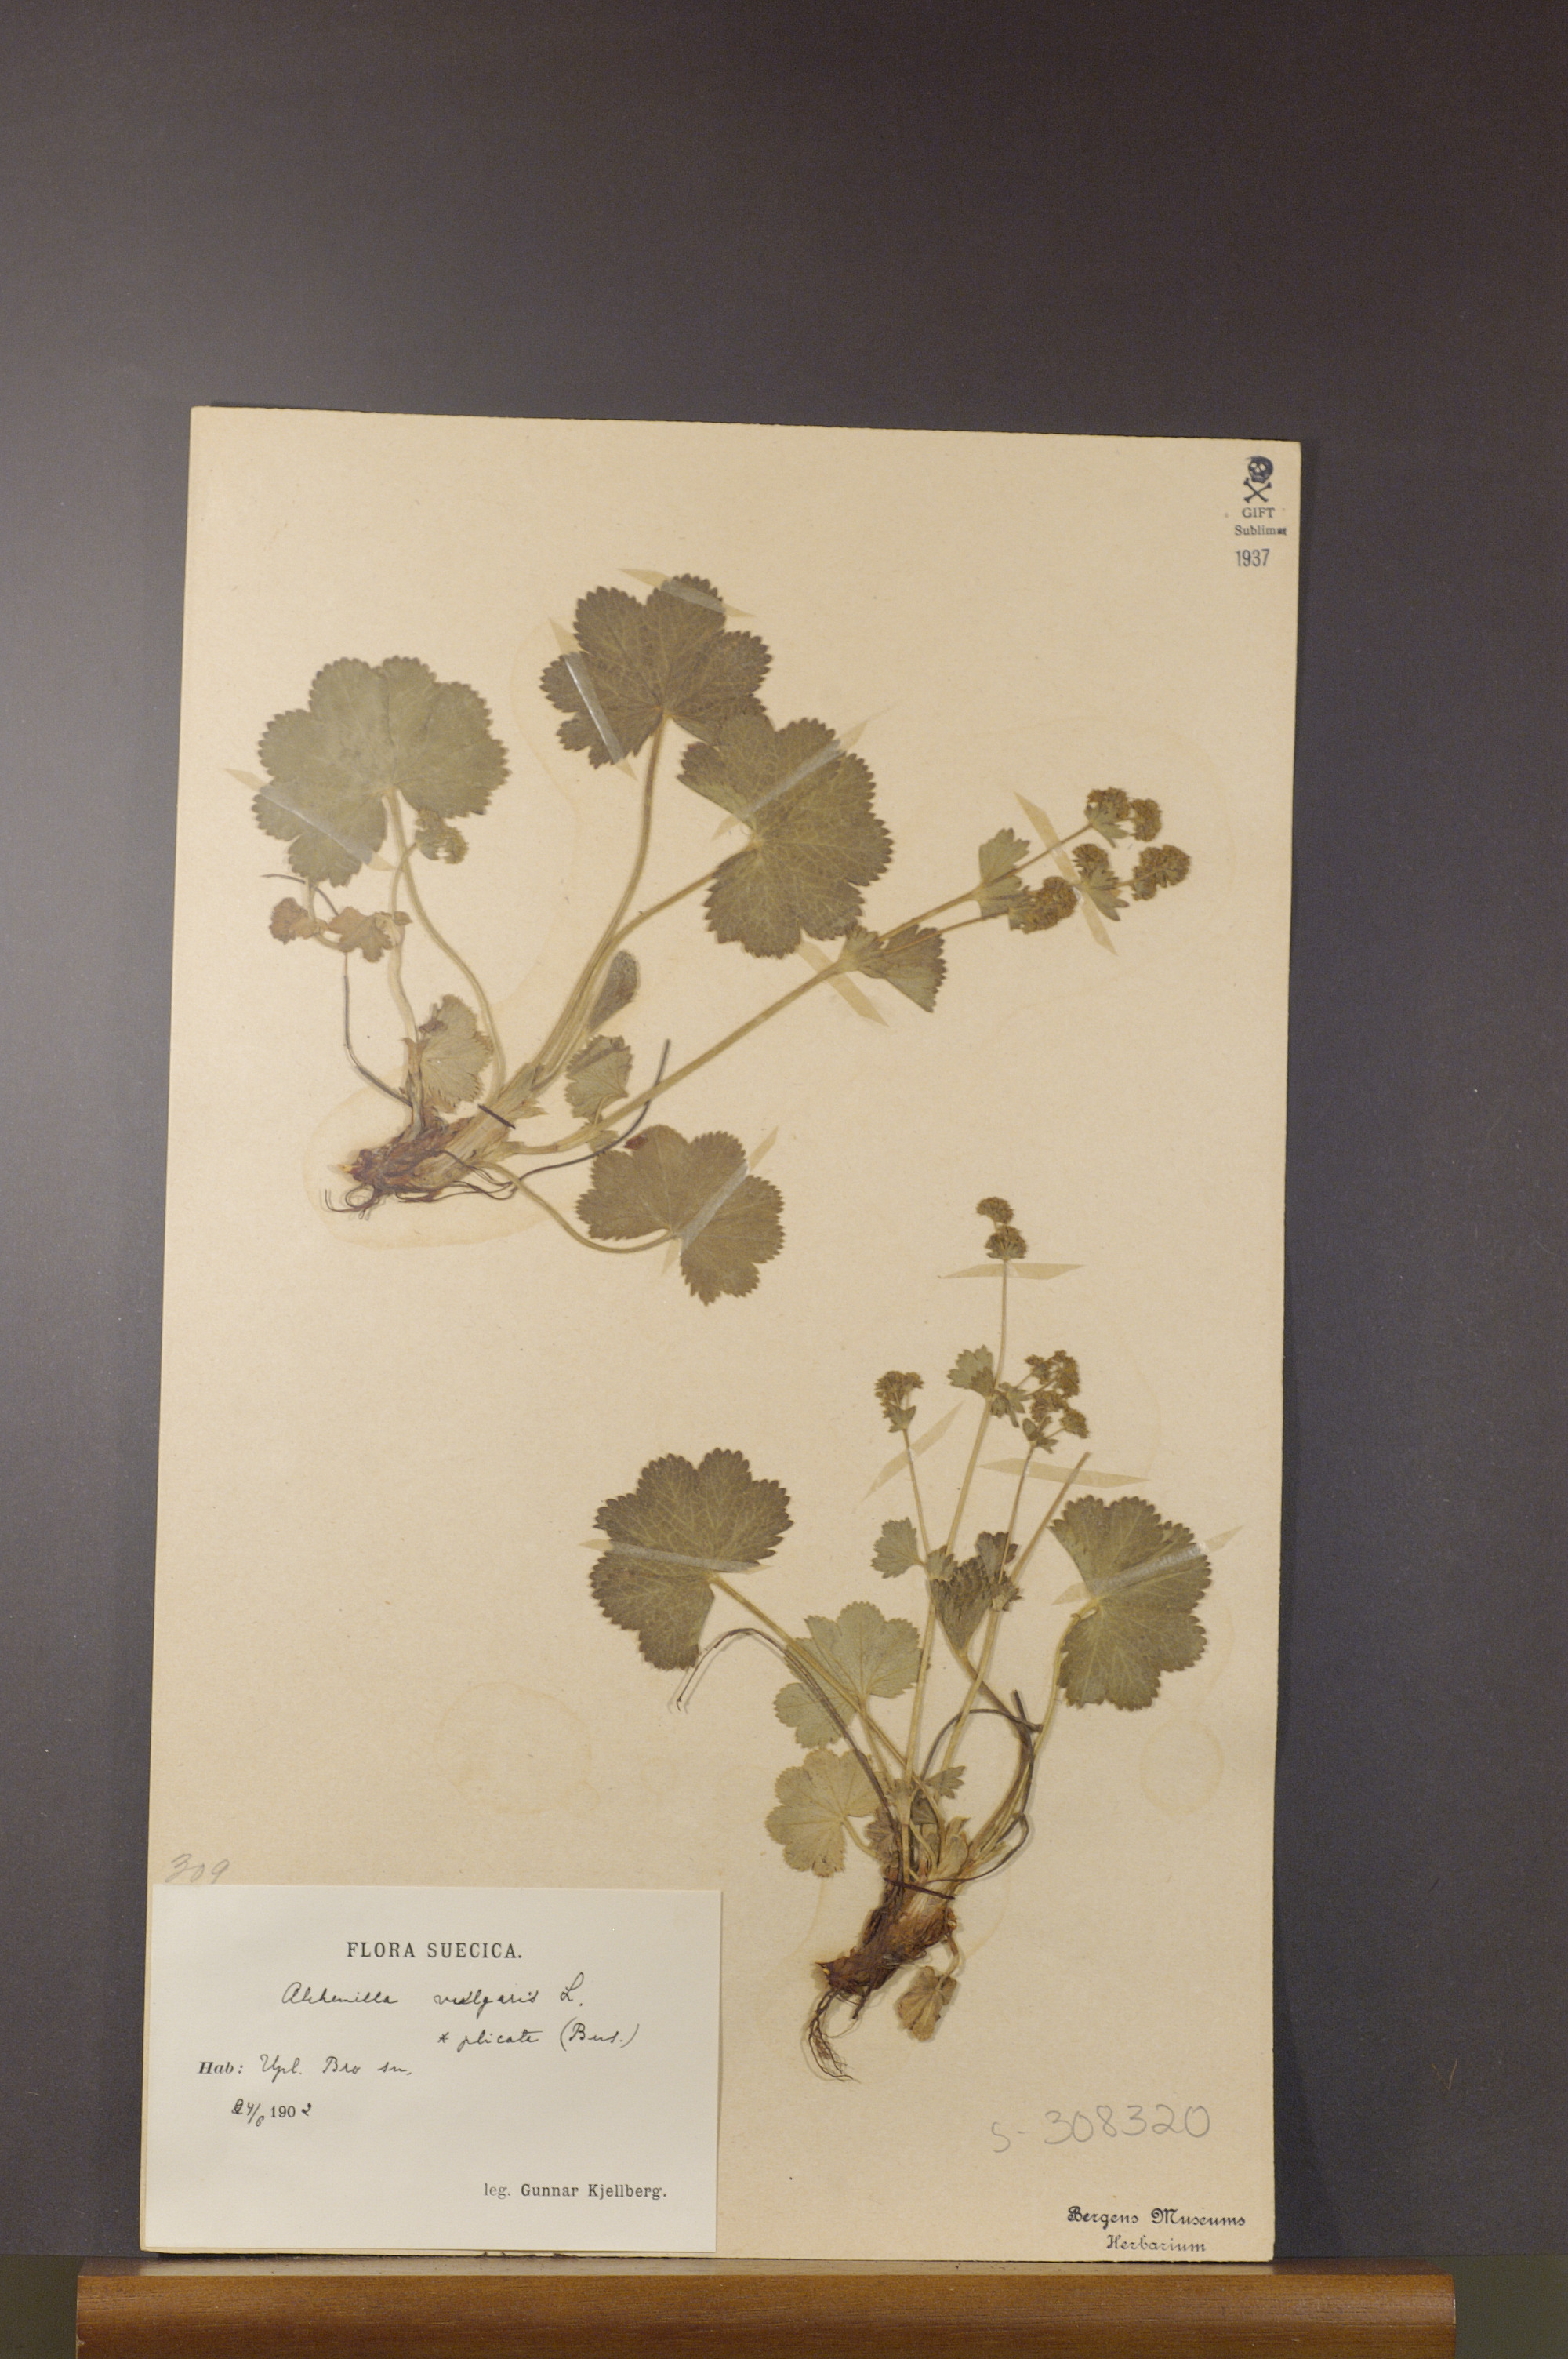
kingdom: Plantae
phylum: Tracheophyta
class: Magnoliopsida
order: Rosales
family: Rosaceae
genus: Alchemilla
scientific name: Alchemilla plicata
